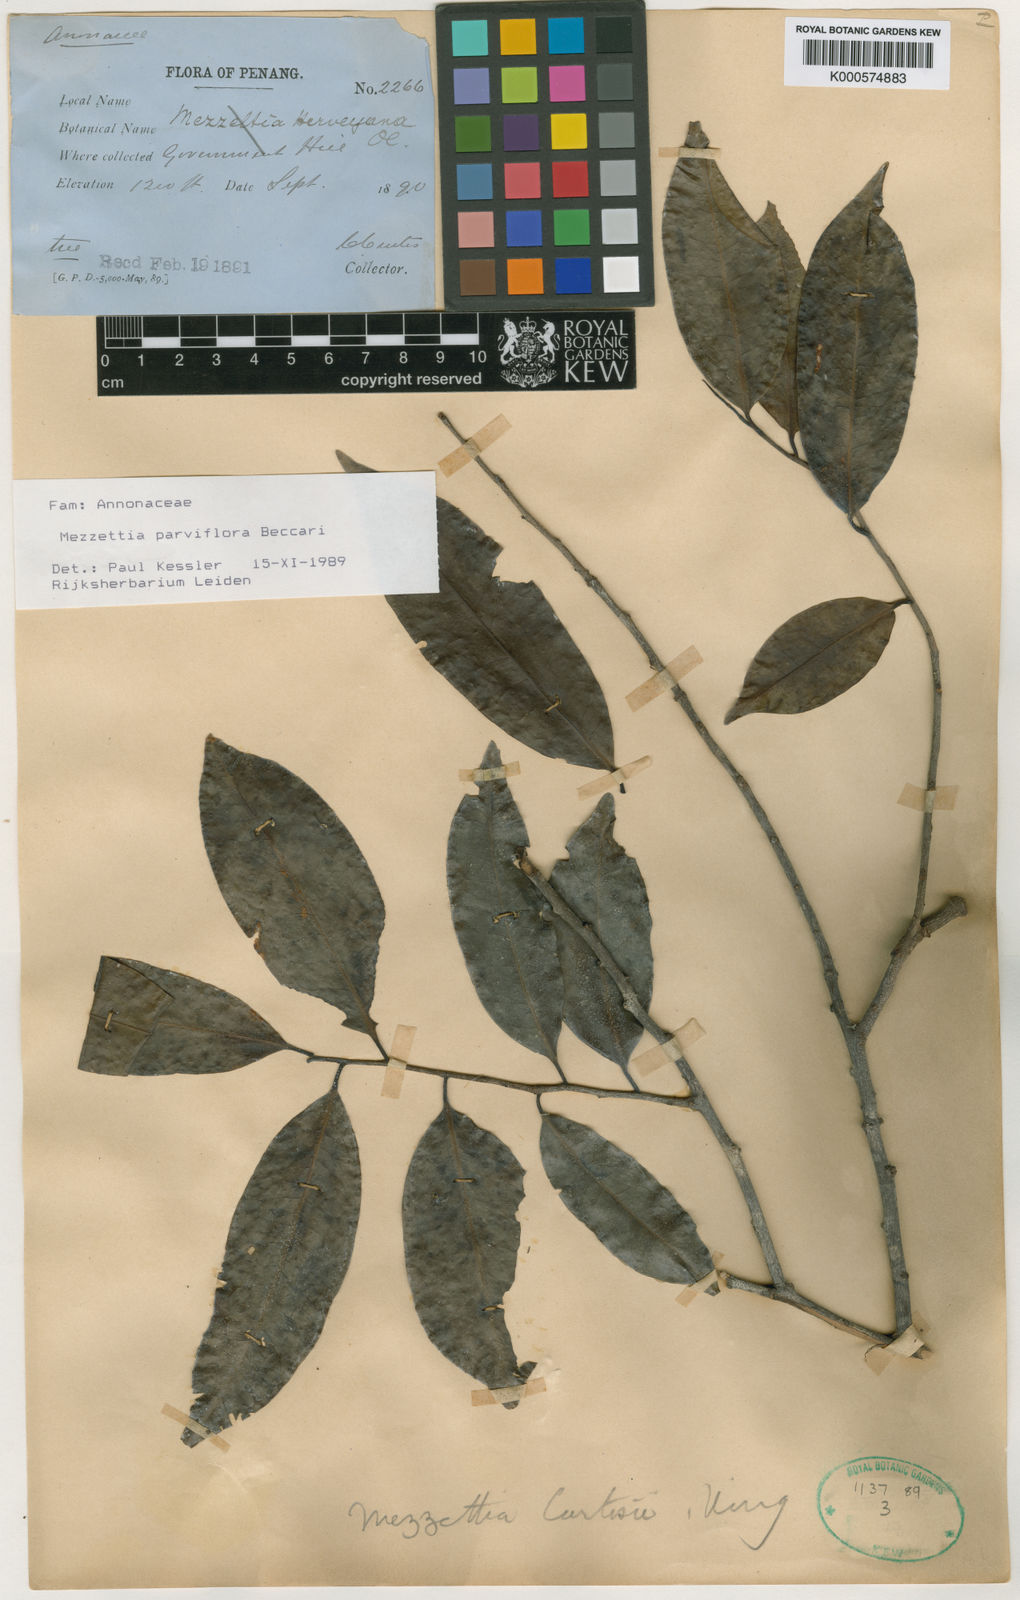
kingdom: Plantae
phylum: Tracheophyta
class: Magnoliopsida
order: Magnoliales
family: Annonaceae
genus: Mezzettia
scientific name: Mezzettia parviflora
